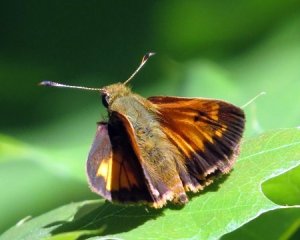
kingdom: Animalia
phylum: Arthropoda
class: Insecta
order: Lepidoptera
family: Hesperiidae
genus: Lon
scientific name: Lon hobomok
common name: Hobomok Skipper
